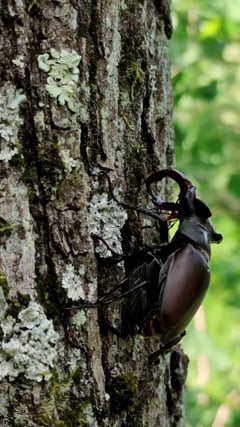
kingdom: Animalia
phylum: Arthropoda
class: Insecta
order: Coleoptera
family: Lucanidae
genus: Lucanus
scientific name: Lucanus cervus
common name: Stag beetle
